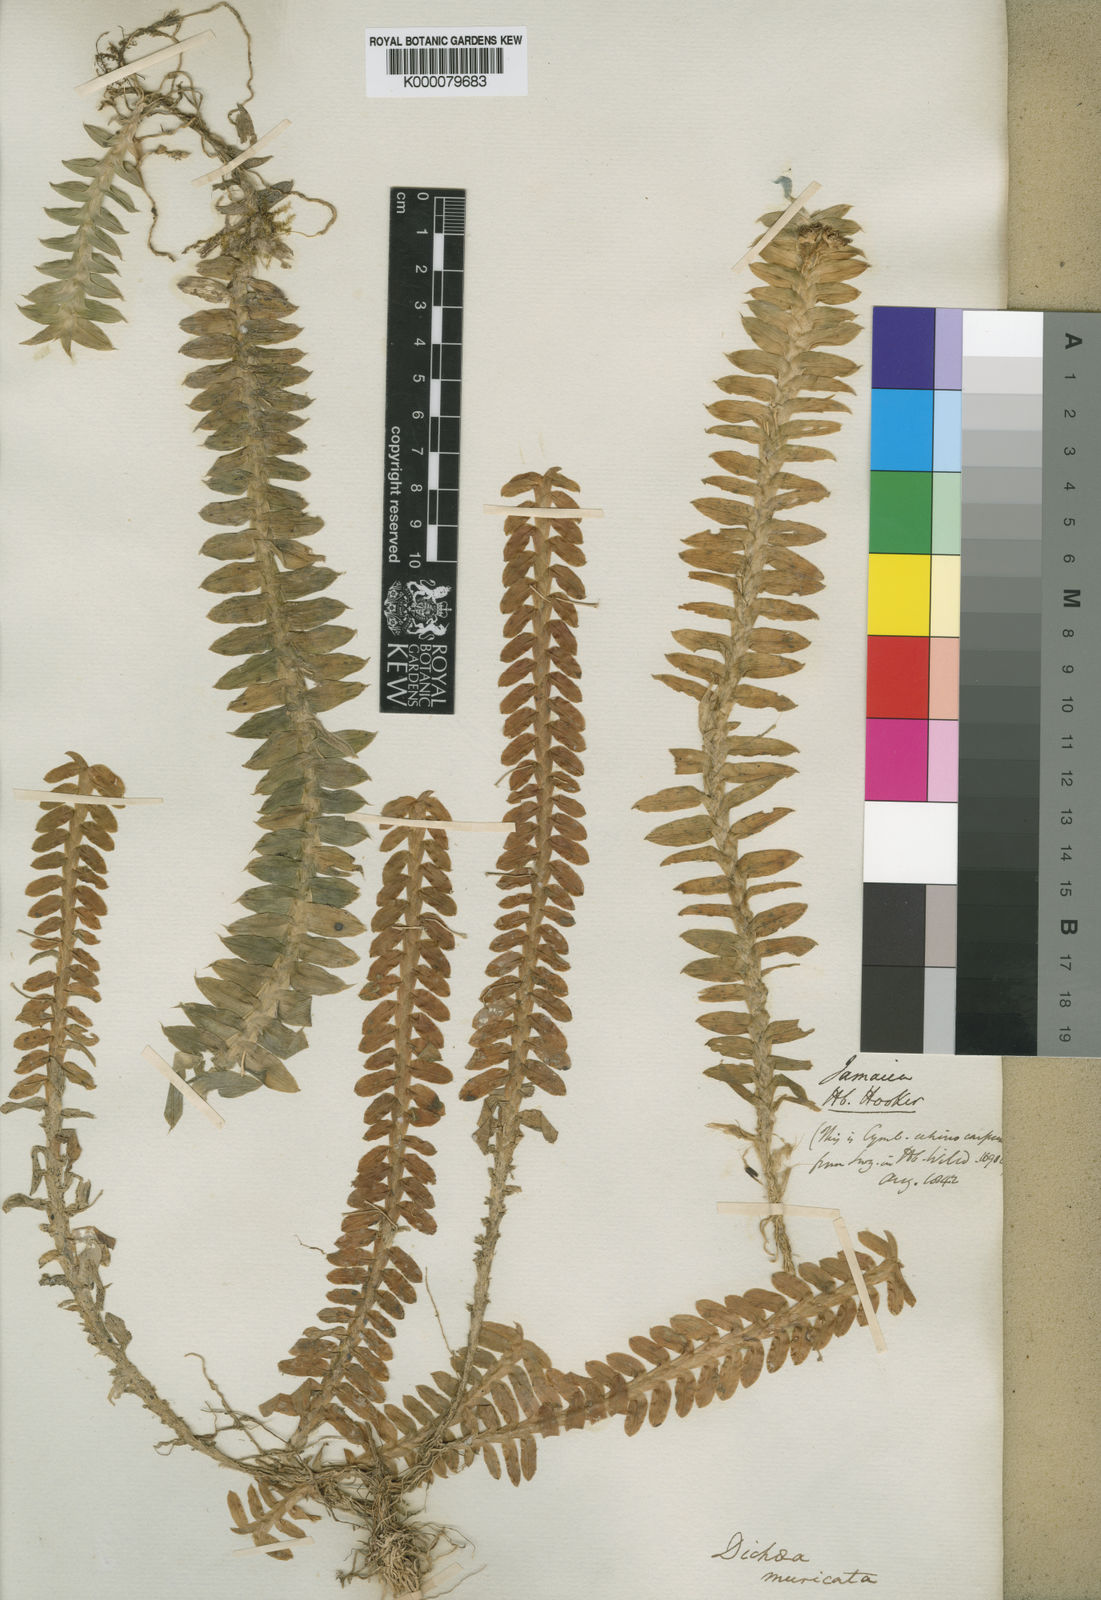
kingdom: Plantae
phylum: Tracheophyta
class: Liliopsida
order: Asparagales
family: Orchidaceae
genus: Dichaea
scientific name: Dichaea morrisii
